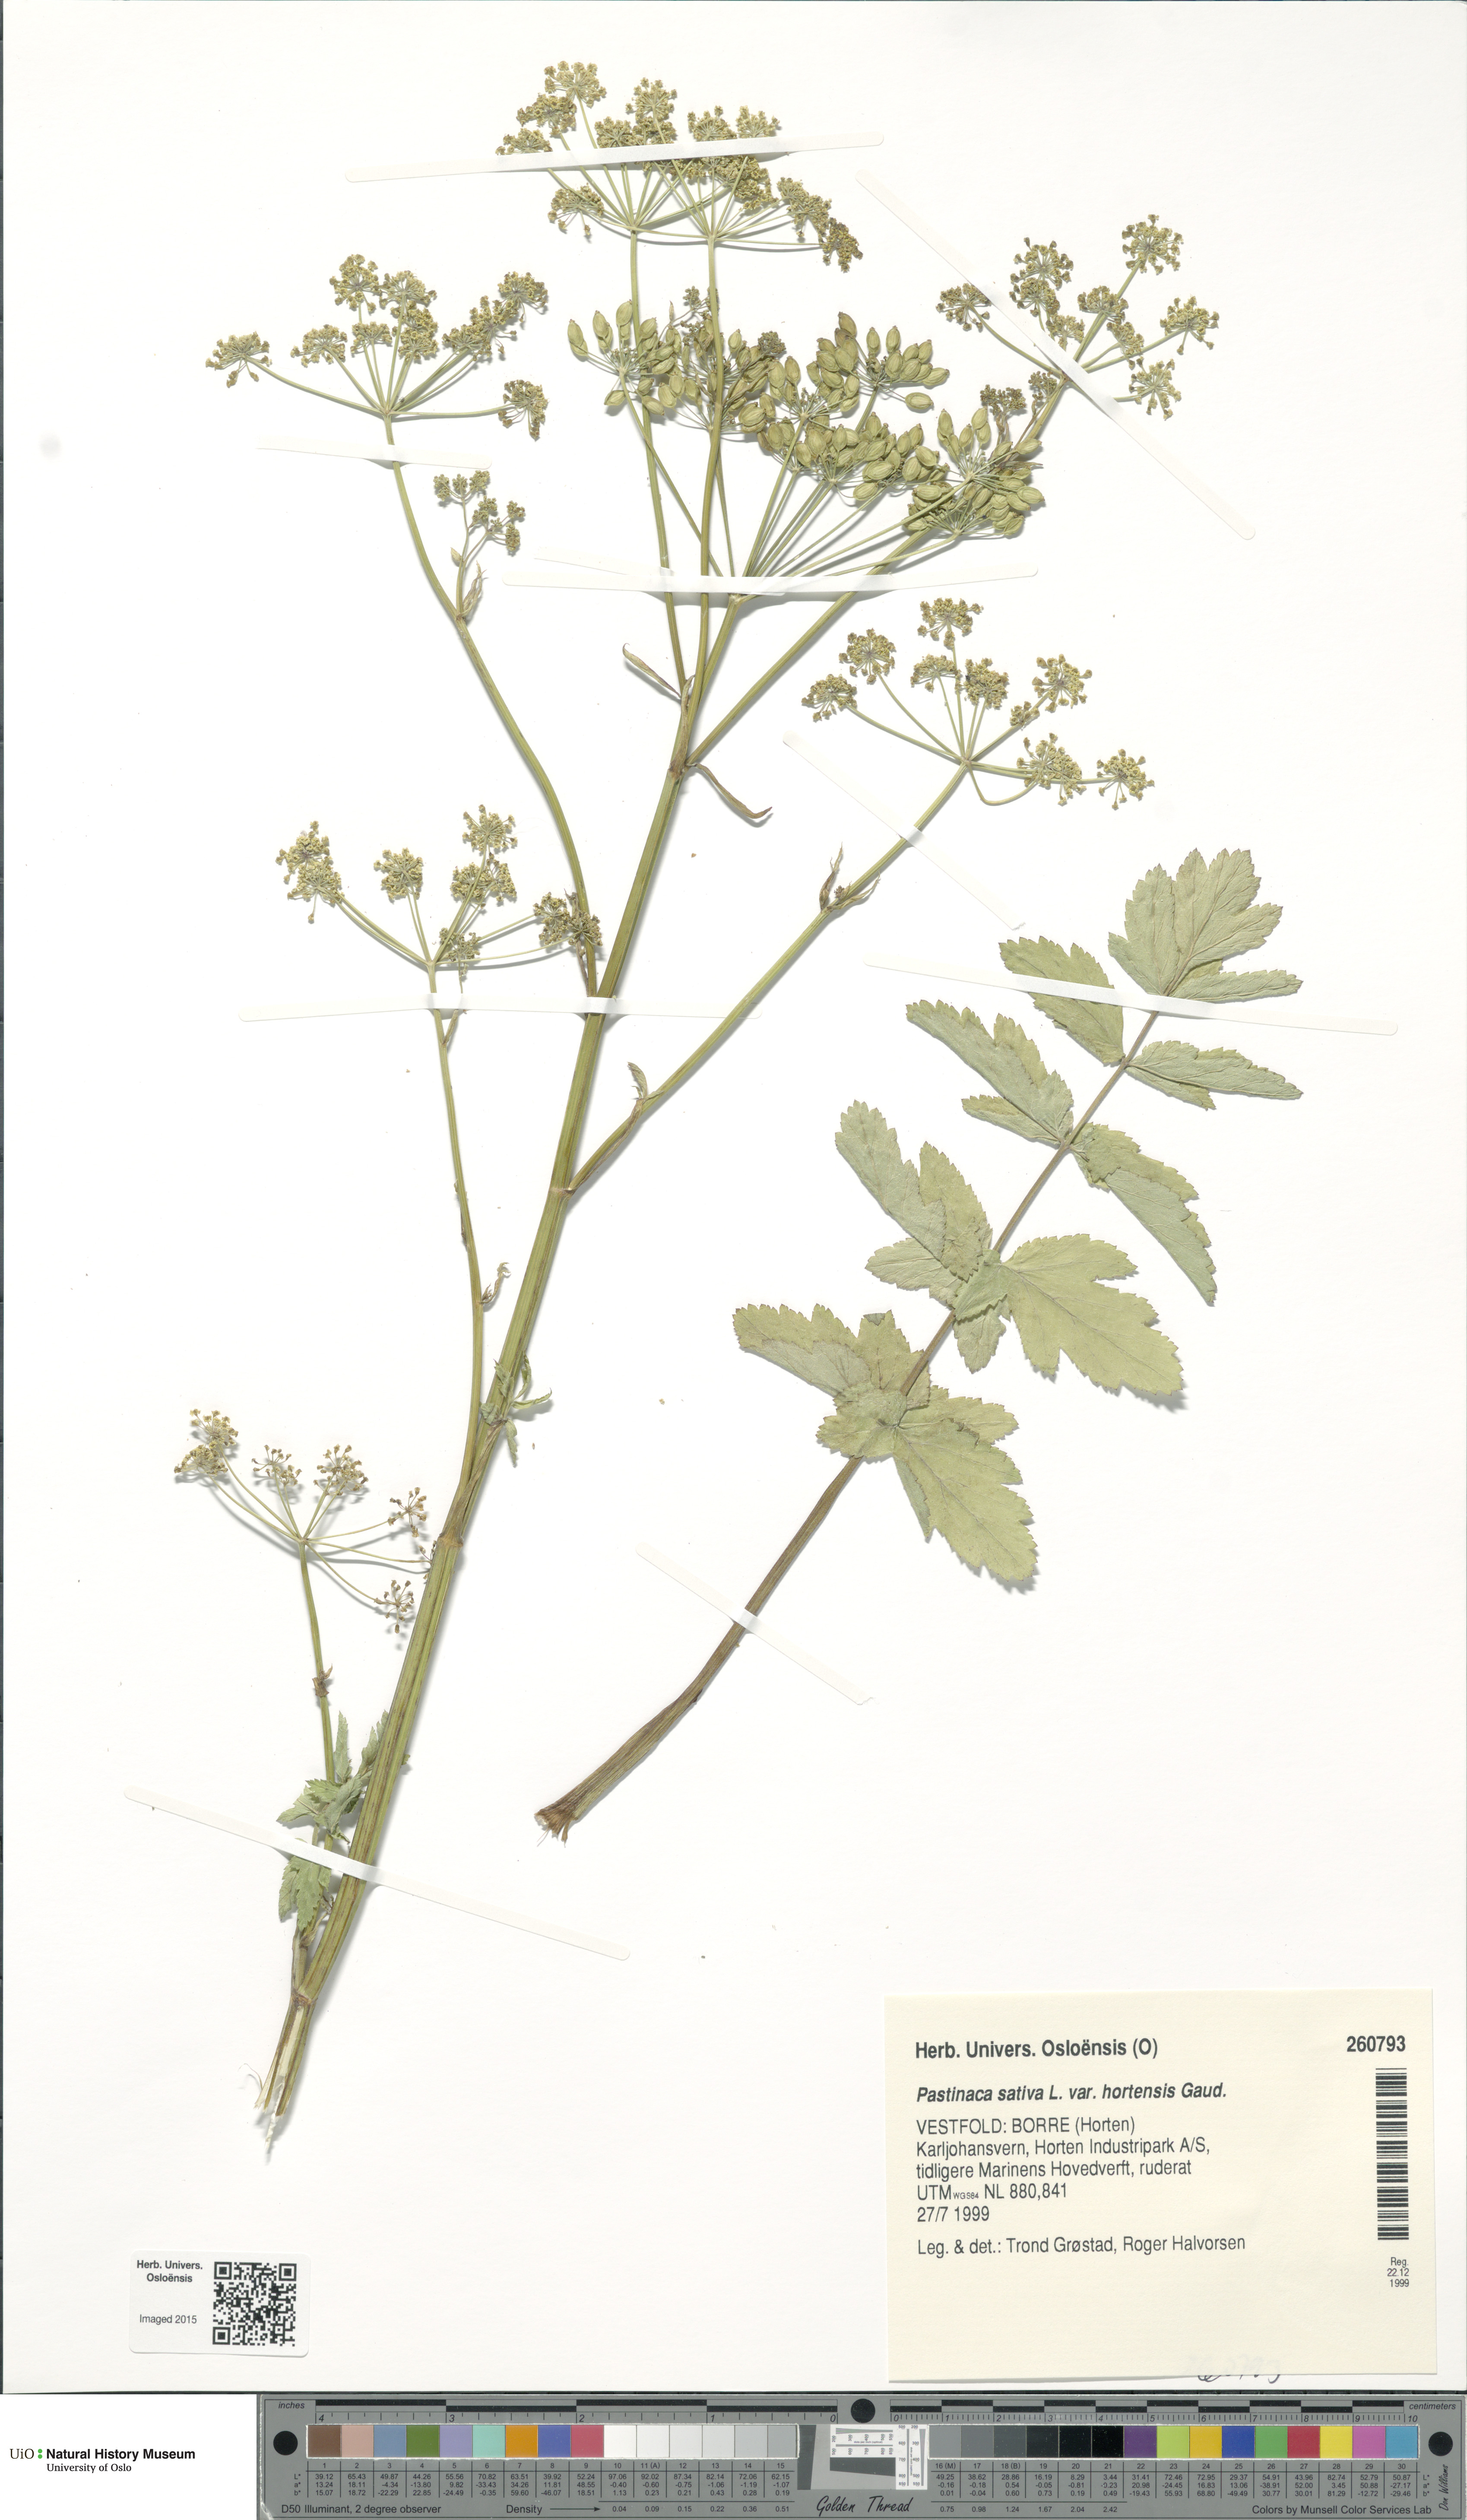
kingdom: Plantae
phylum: Tracheophyta
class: Magnoliopsida
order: Apiales
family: Apiaceae
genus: Pastinaca
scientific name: Pastinaca sativa
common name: Wild parsnip
